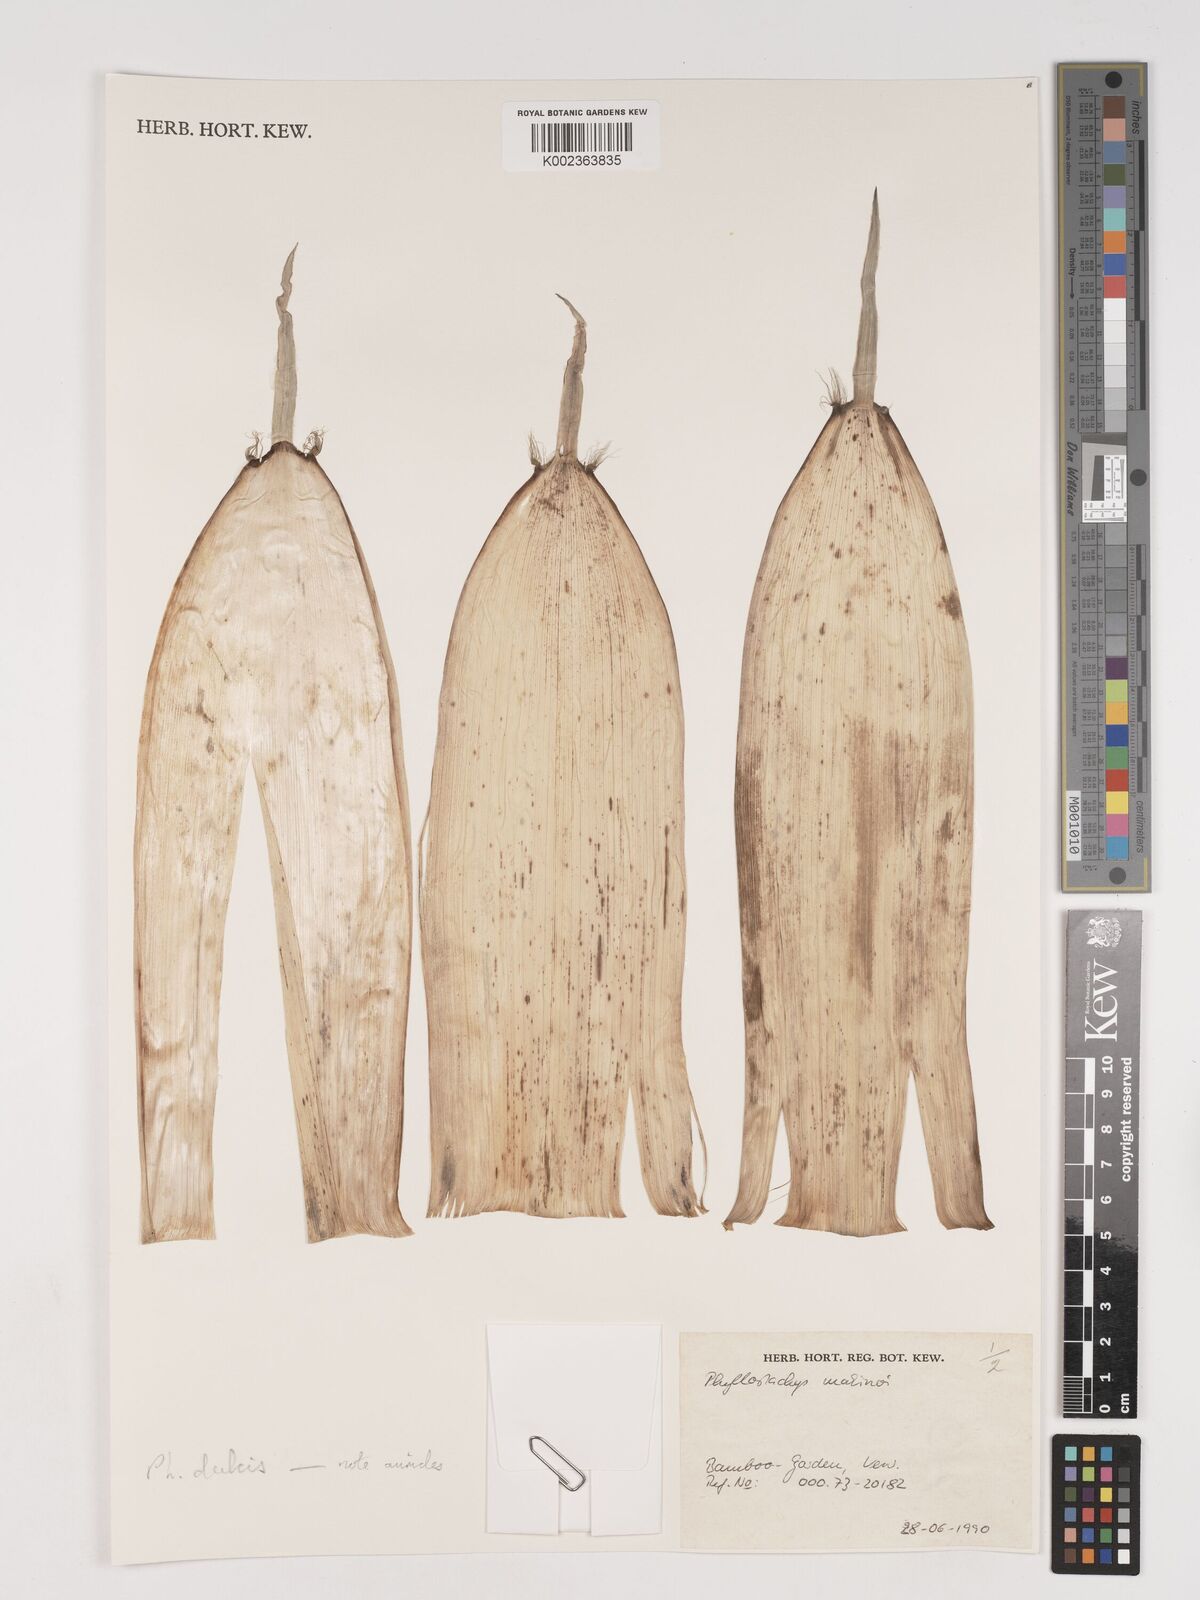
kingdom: Plantae
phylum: Tracheophyta
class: Liliopsida
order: Poales
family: Poaceae
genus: Phyllostachys
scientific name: Phyllostachys dulcis
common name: Sweetshoot bamboo
